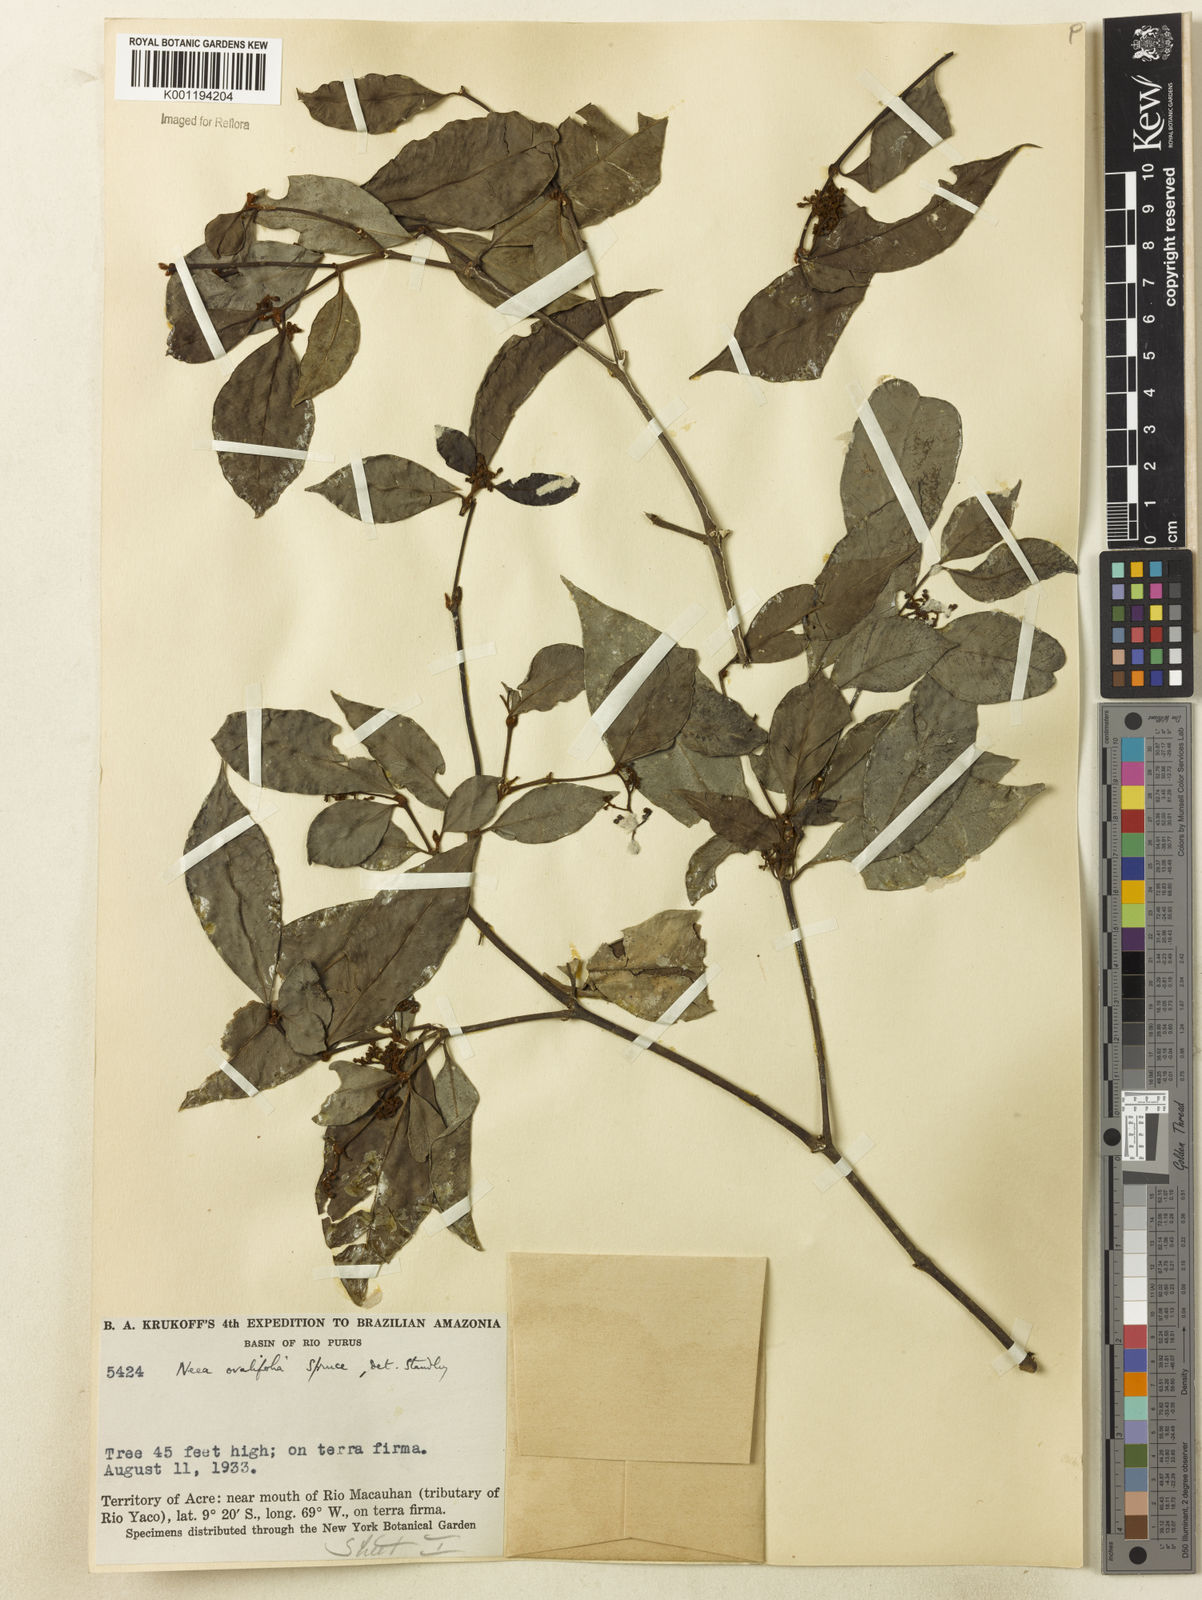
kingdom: Plantae
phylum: Tracheophyta
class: Magnoliopsida
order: Caryophyllales
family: Nyctaginaceae
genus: Neea
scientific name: Neea ovalifolia
